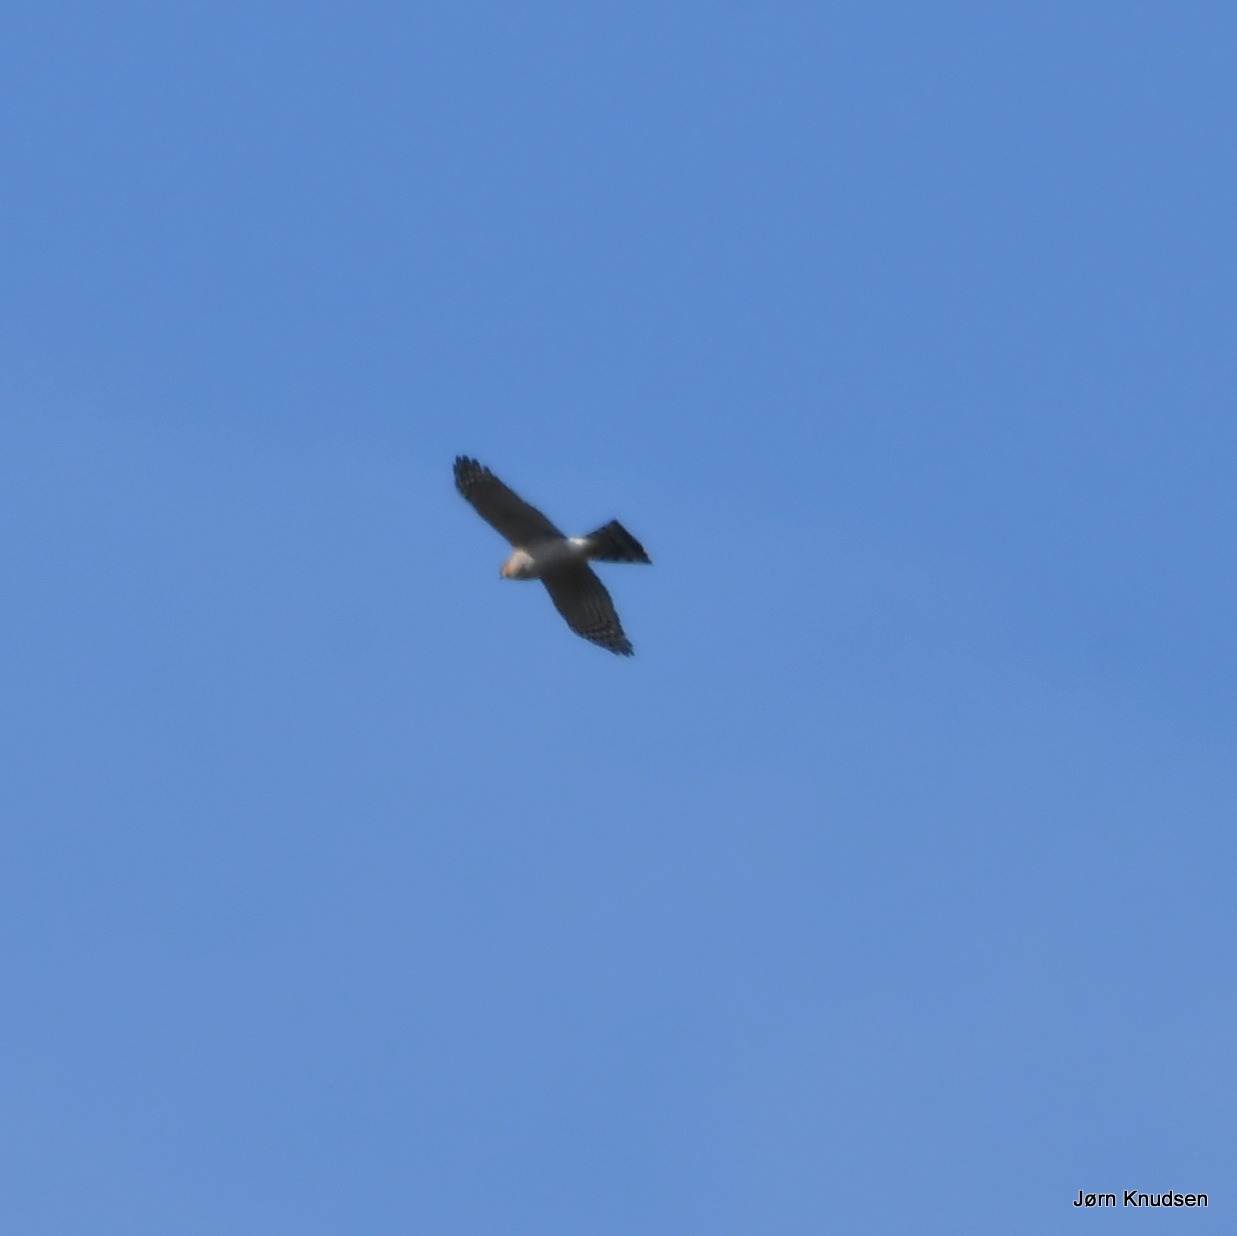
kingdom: Animalia
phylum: Chordata
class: Aves
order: Accipitriformes
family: Accipitridae
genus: Accipiter
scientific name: Accipiter nisus
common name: Spurvehøg
